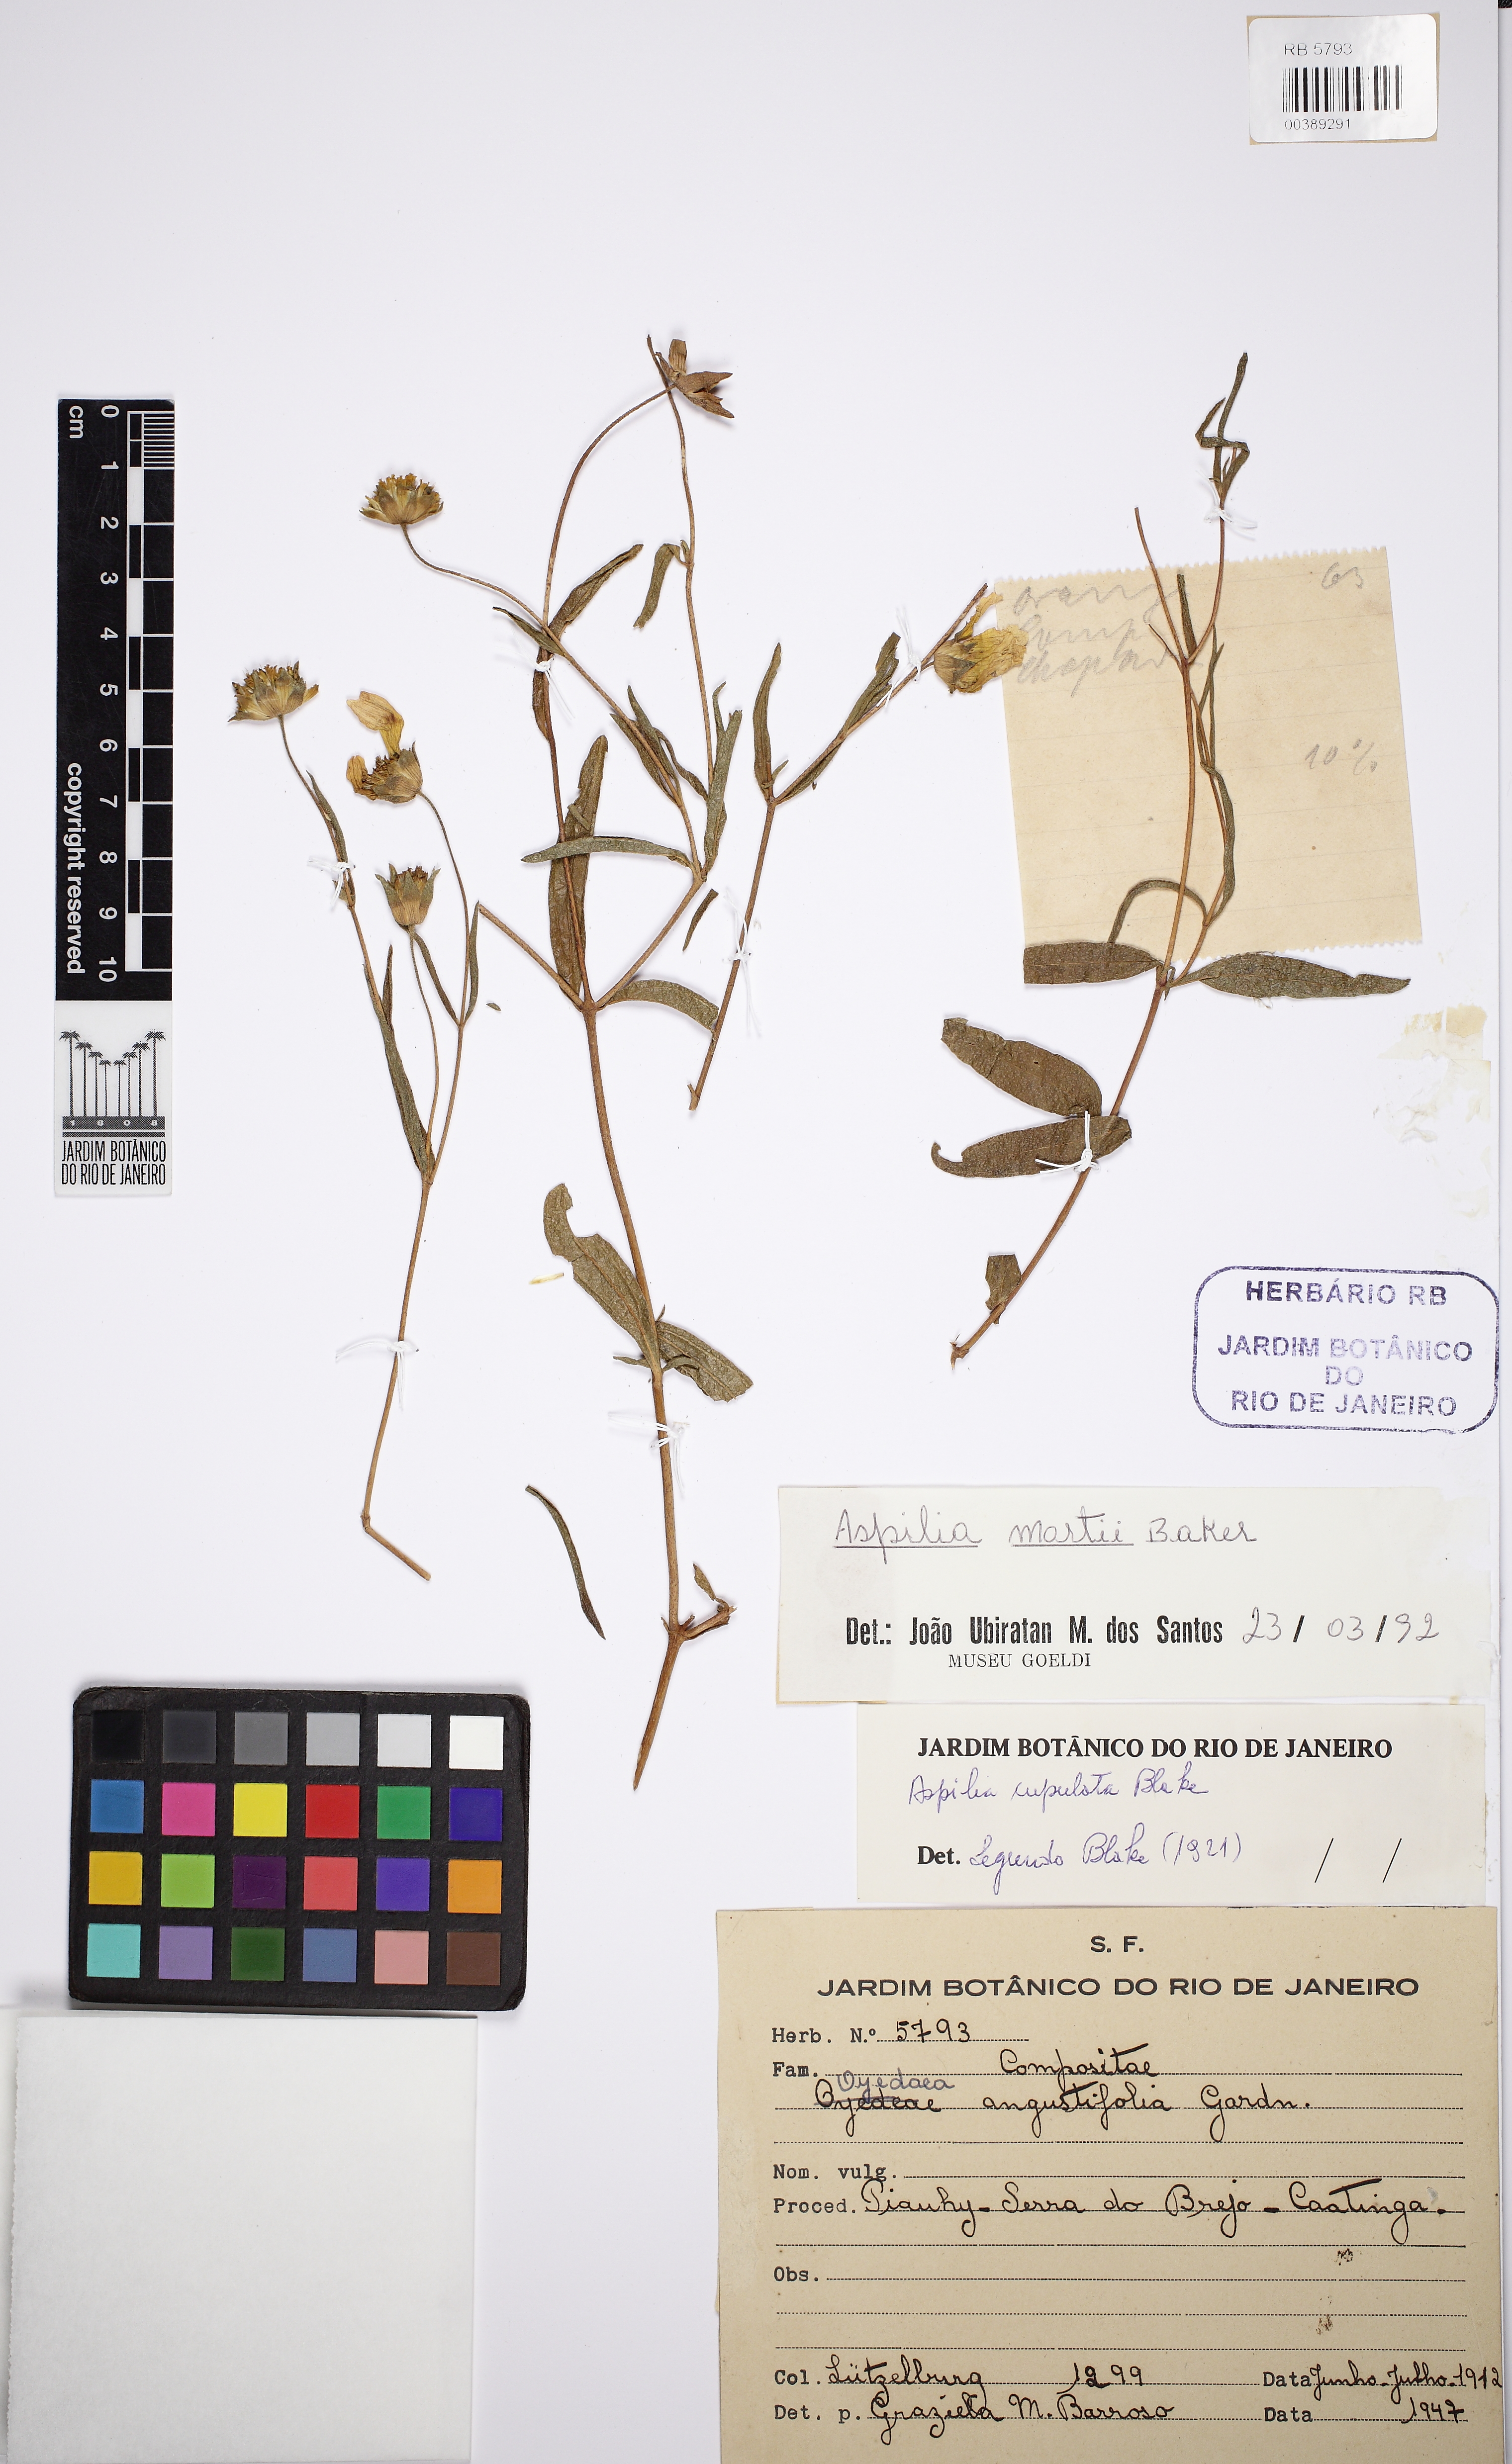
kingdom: Plantae
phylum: Tracheophyta
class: Magnoliopsida
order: Asterales
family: Asteraceae
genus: Wedelia
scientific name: Wedelia martii
